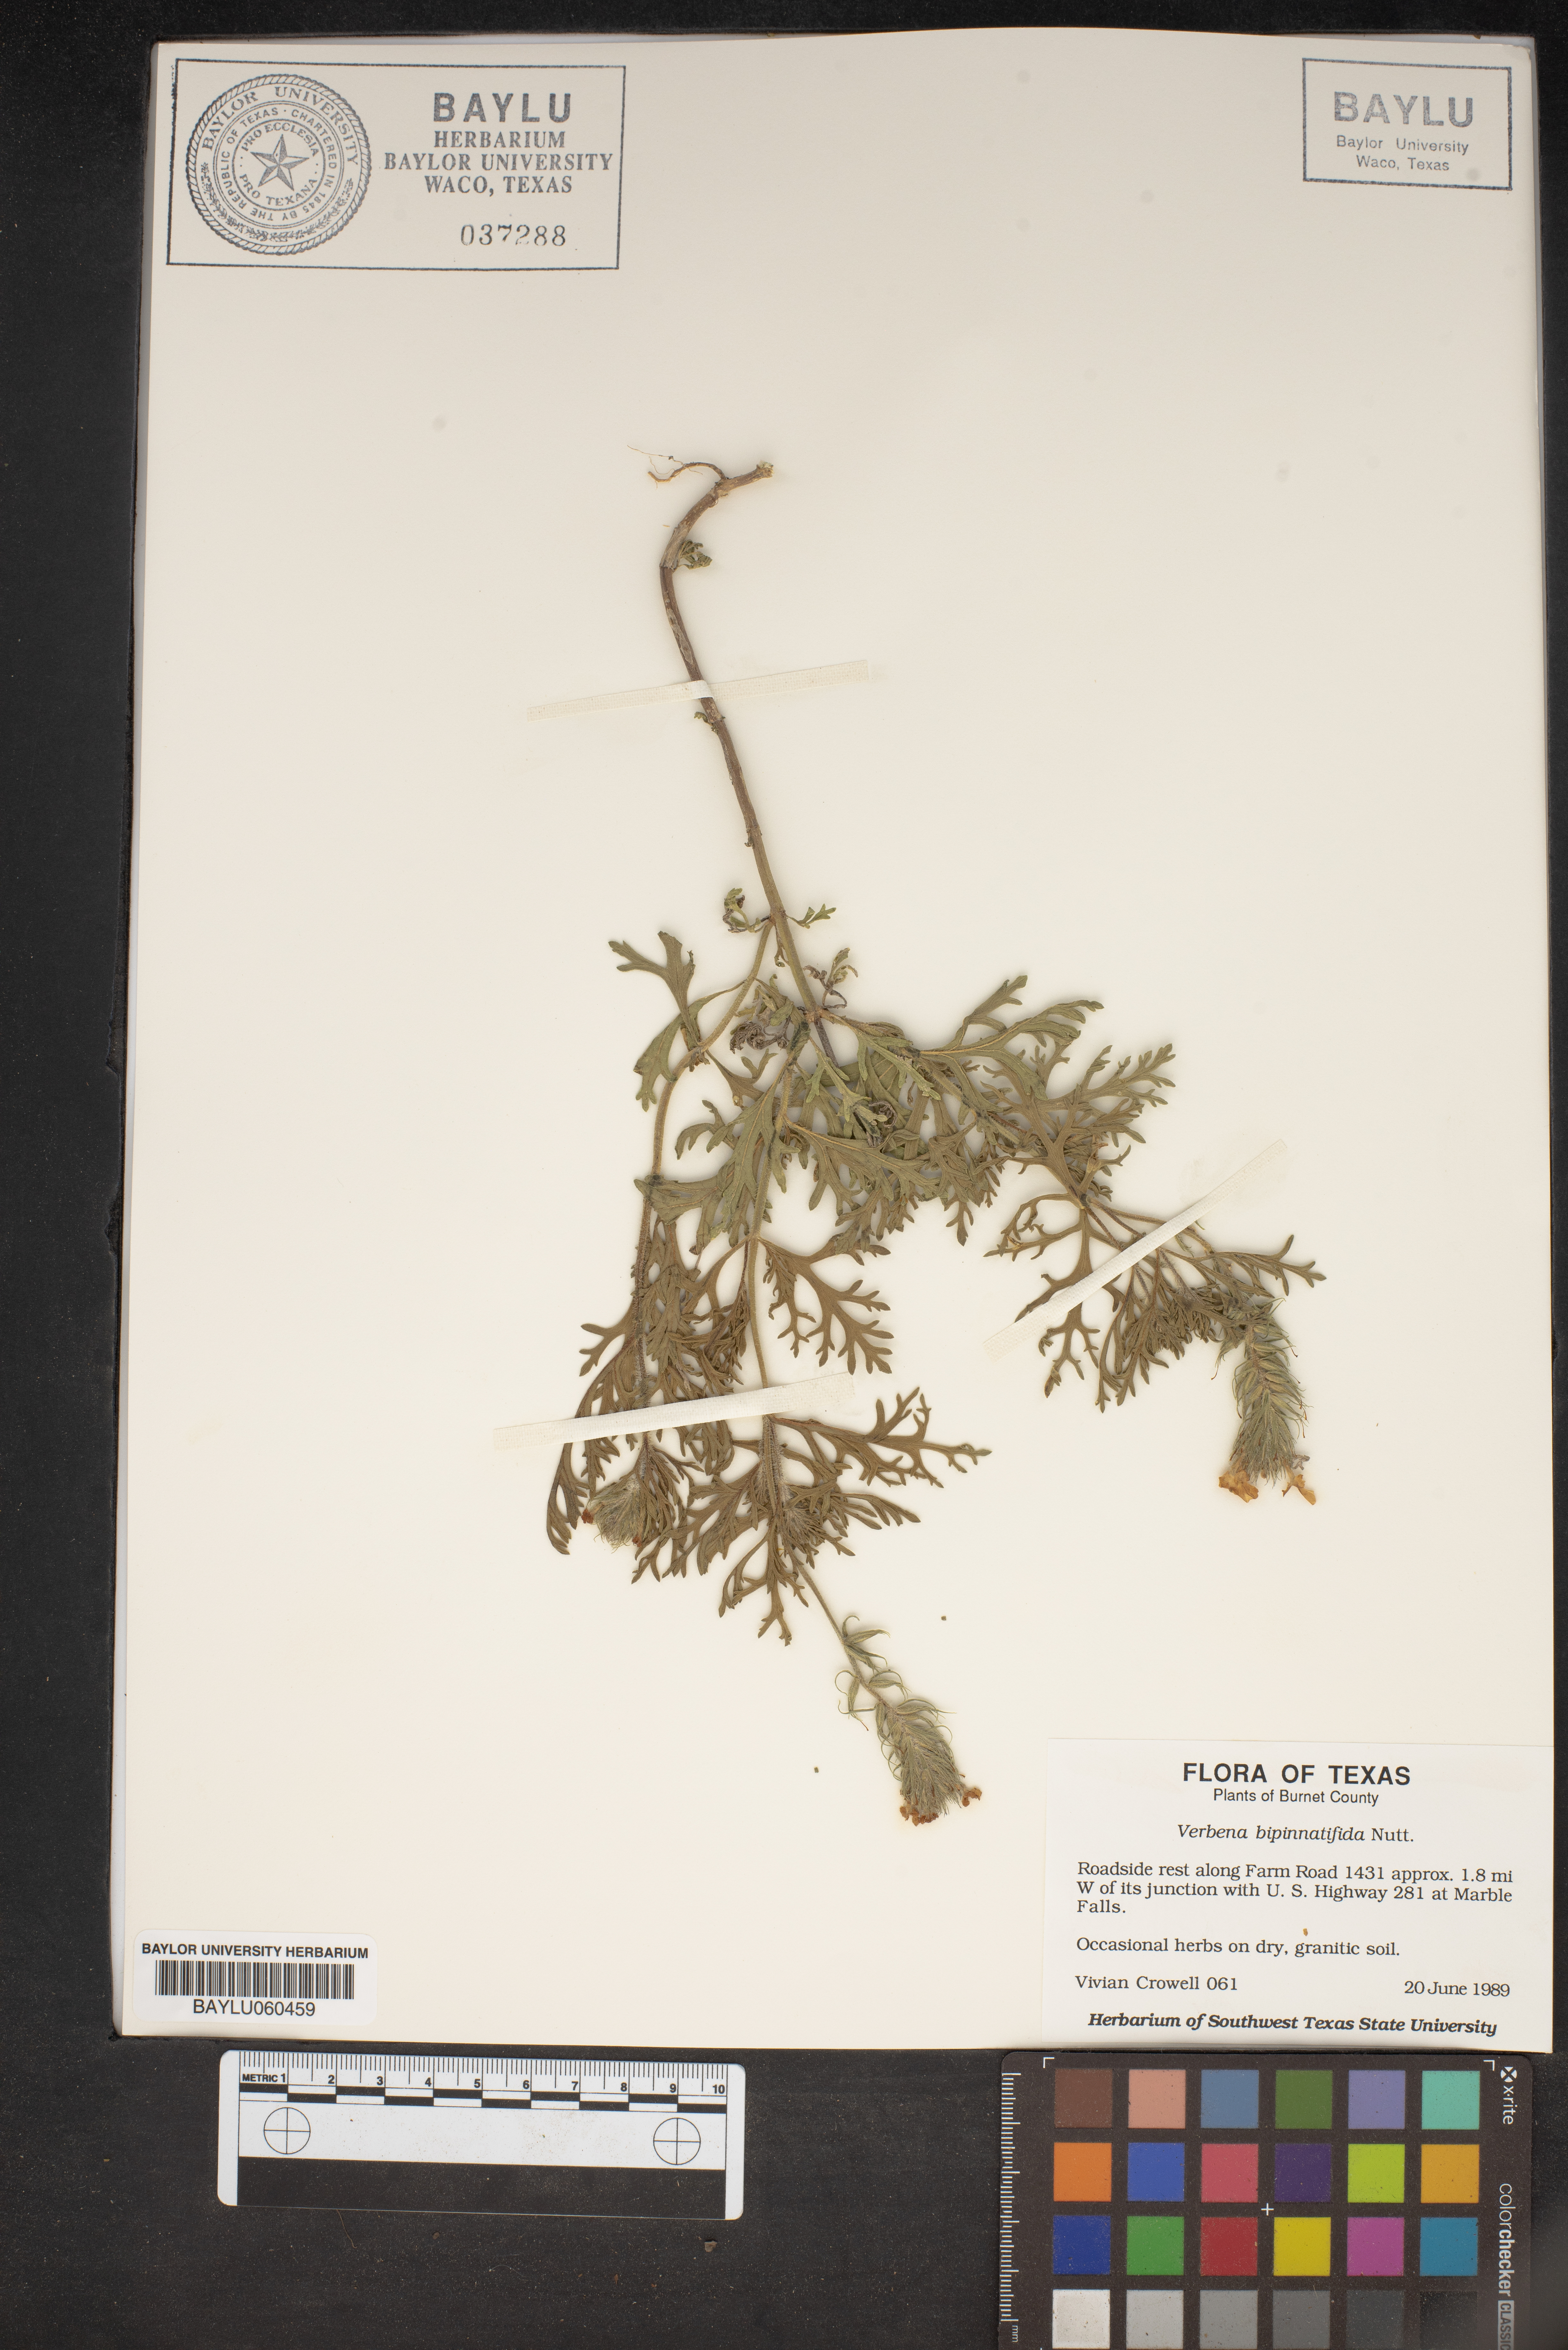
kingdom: Plantae
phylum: Tracheophyta
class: Magnoliopsida
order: Lamiales
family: Verbenaceae
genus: Verbena
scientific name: Verbena bipinnatifida
